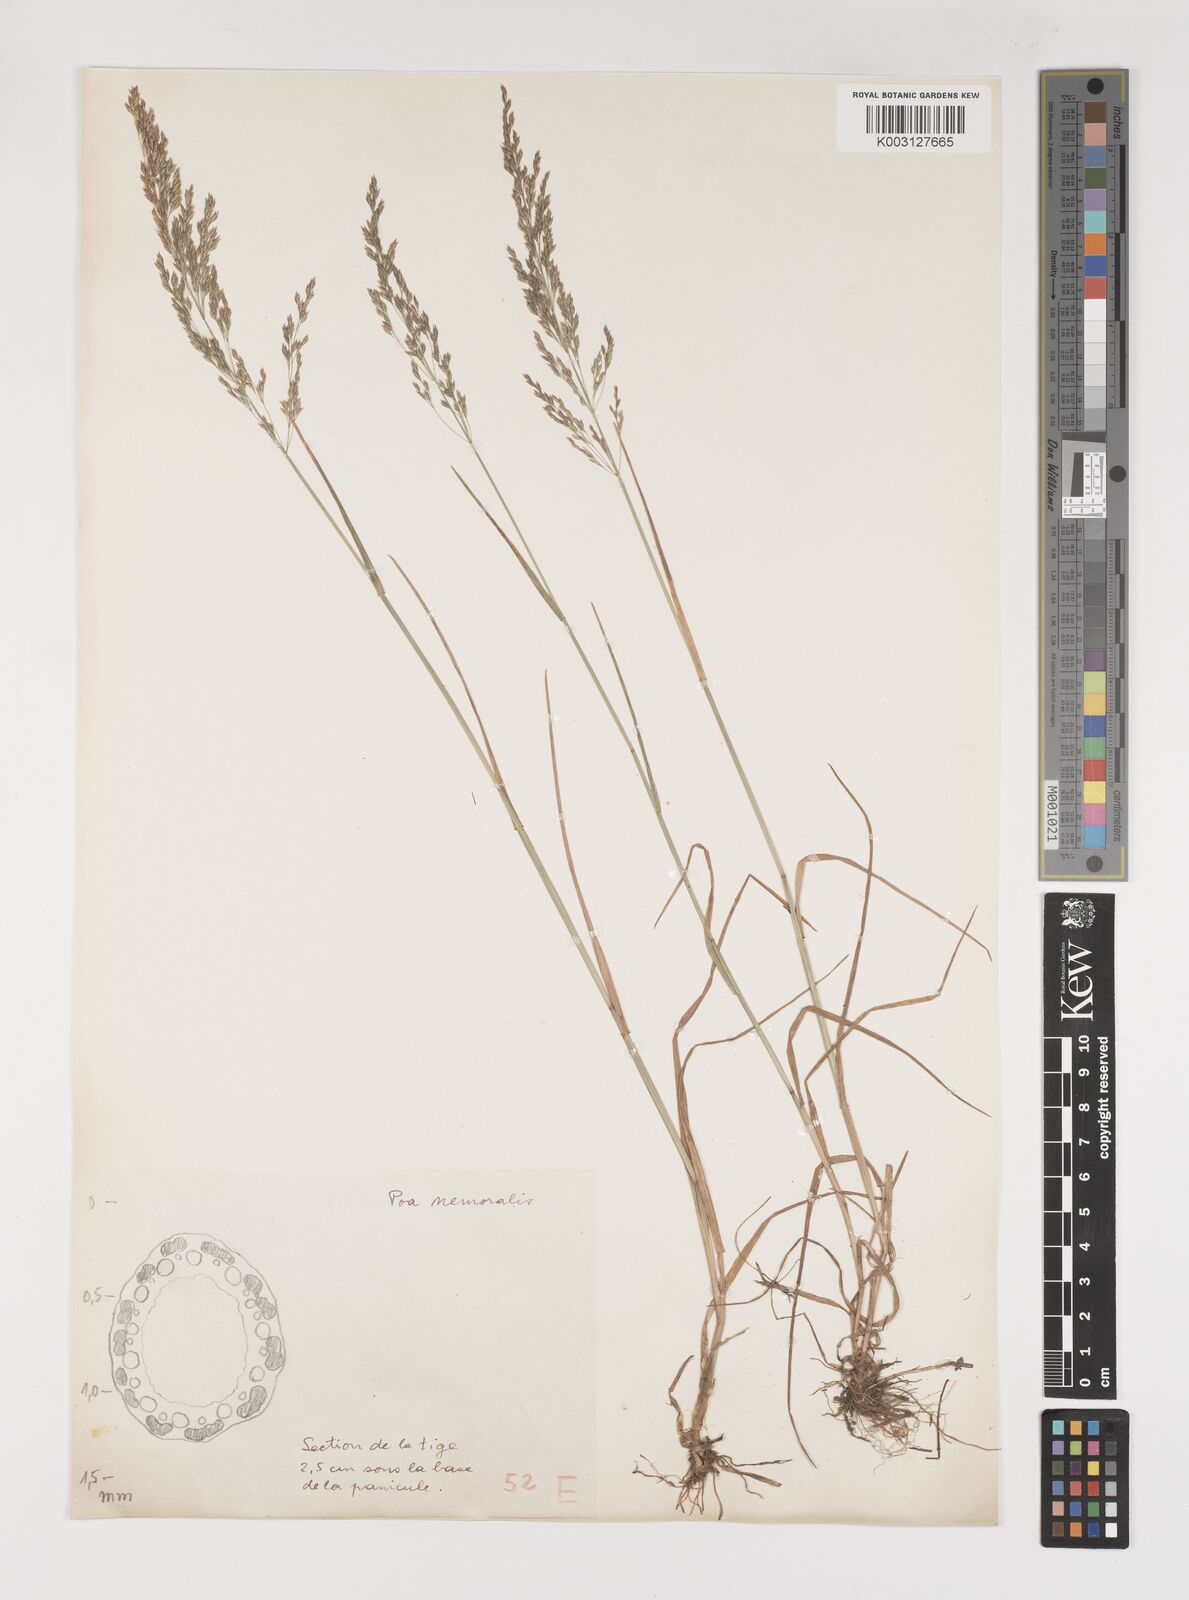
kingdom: Plantae
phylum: Tracheophyta
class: Liliopsida
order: Poales
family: Poaceae
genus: Poa
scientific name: Poa
